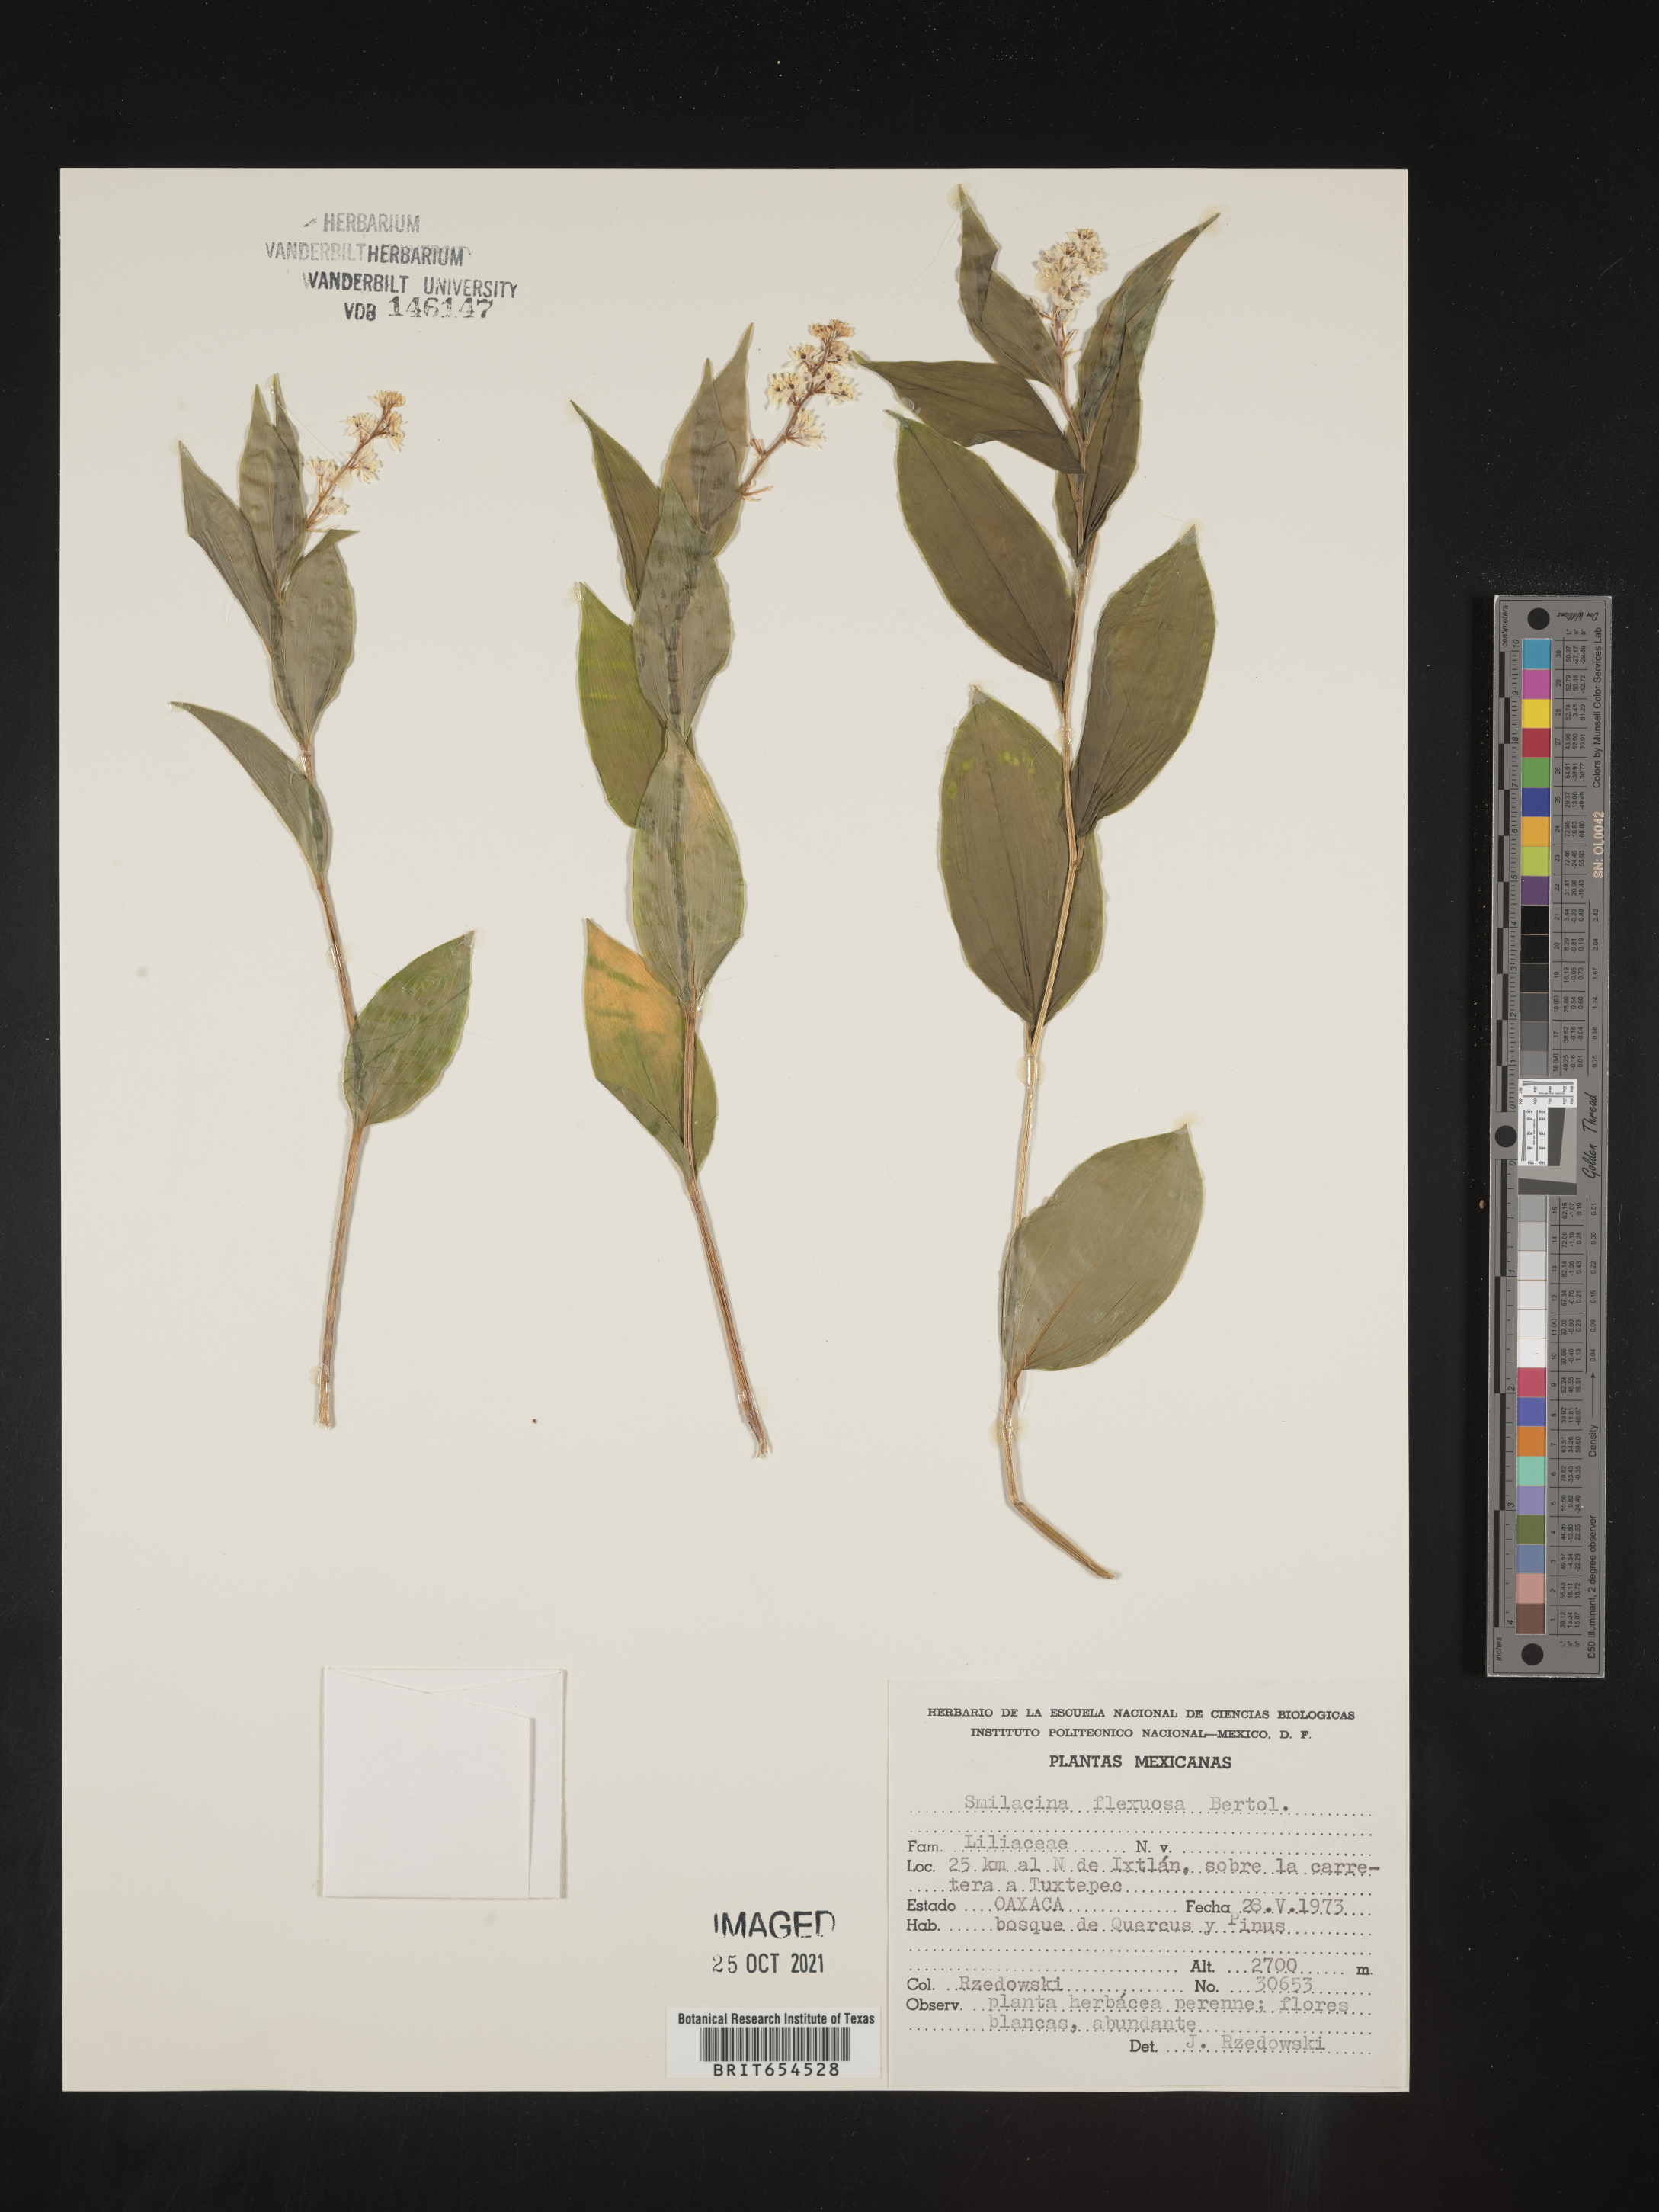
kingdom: Plantae
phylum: Tracheophyta
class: Liliopsida
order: Liliales
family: Liliaceae
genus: Smilacina
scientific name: Smilacina
